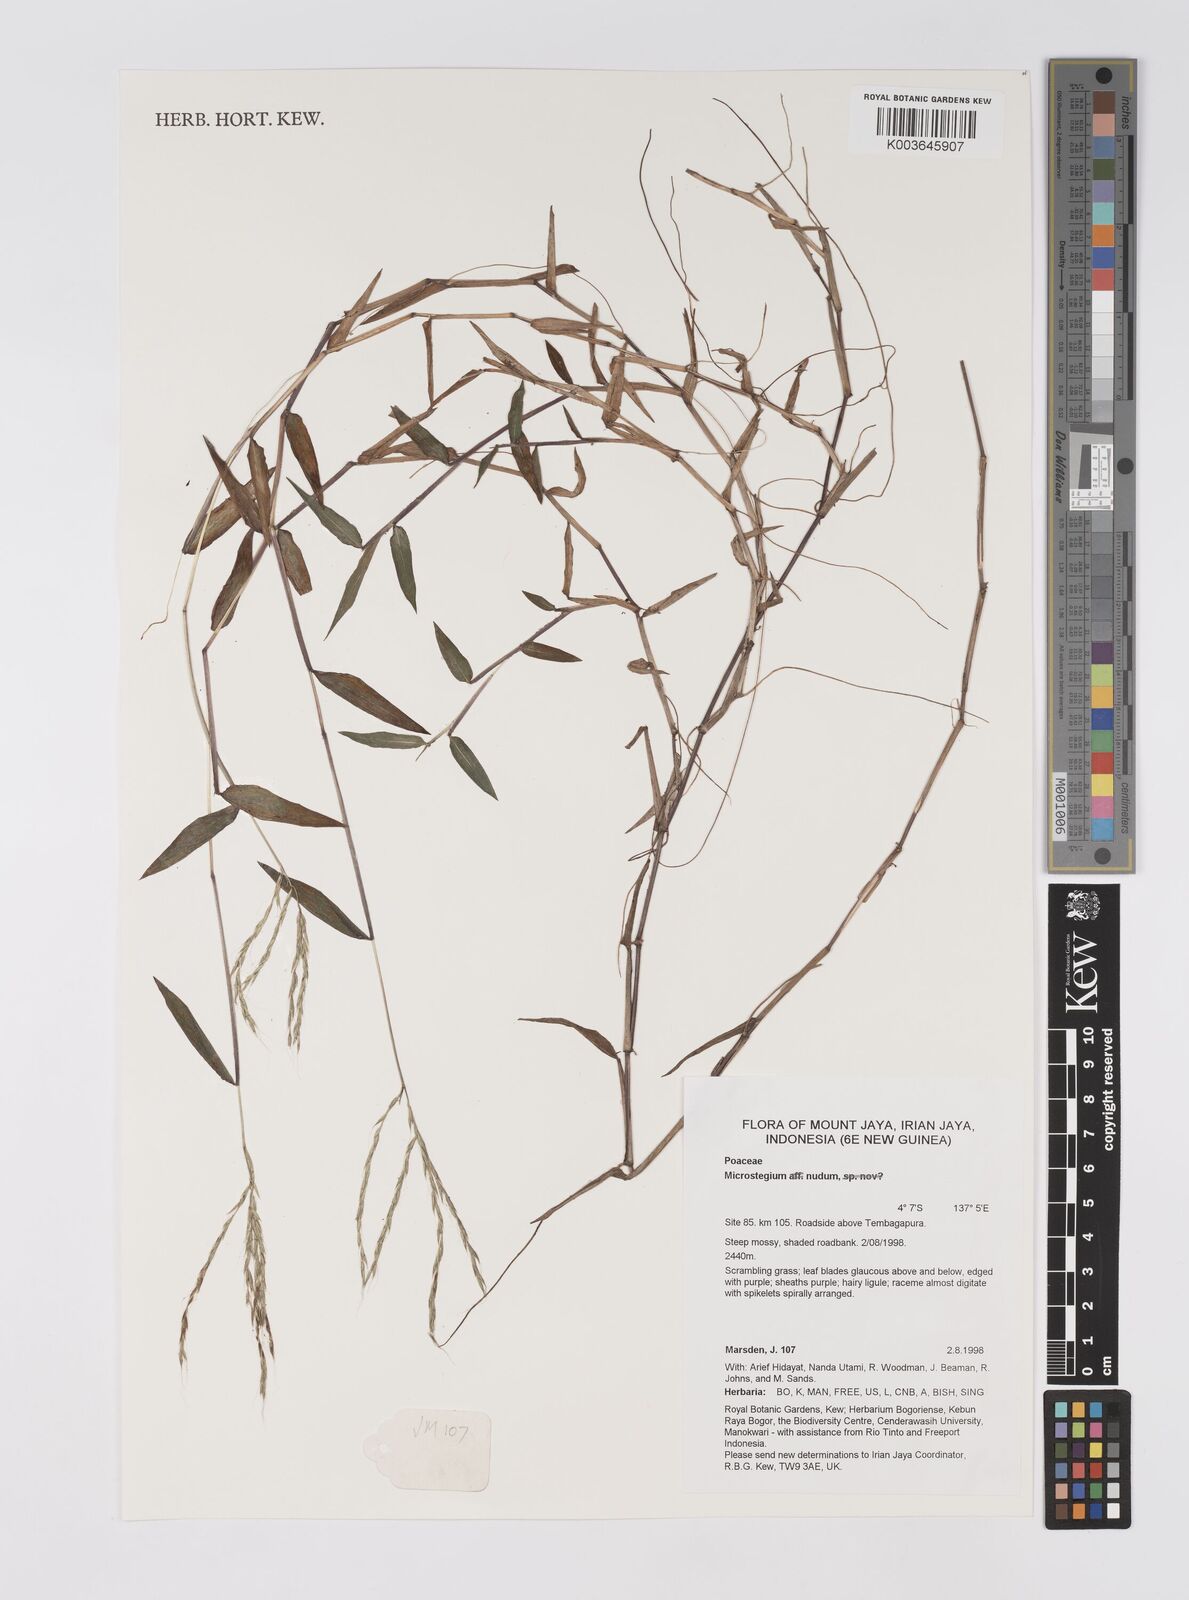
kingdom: Plantae
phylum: Tracheophyta
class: Liliopsida
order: Poales
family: Poaceae
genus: Microstegium
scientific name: Microstegium nudum
